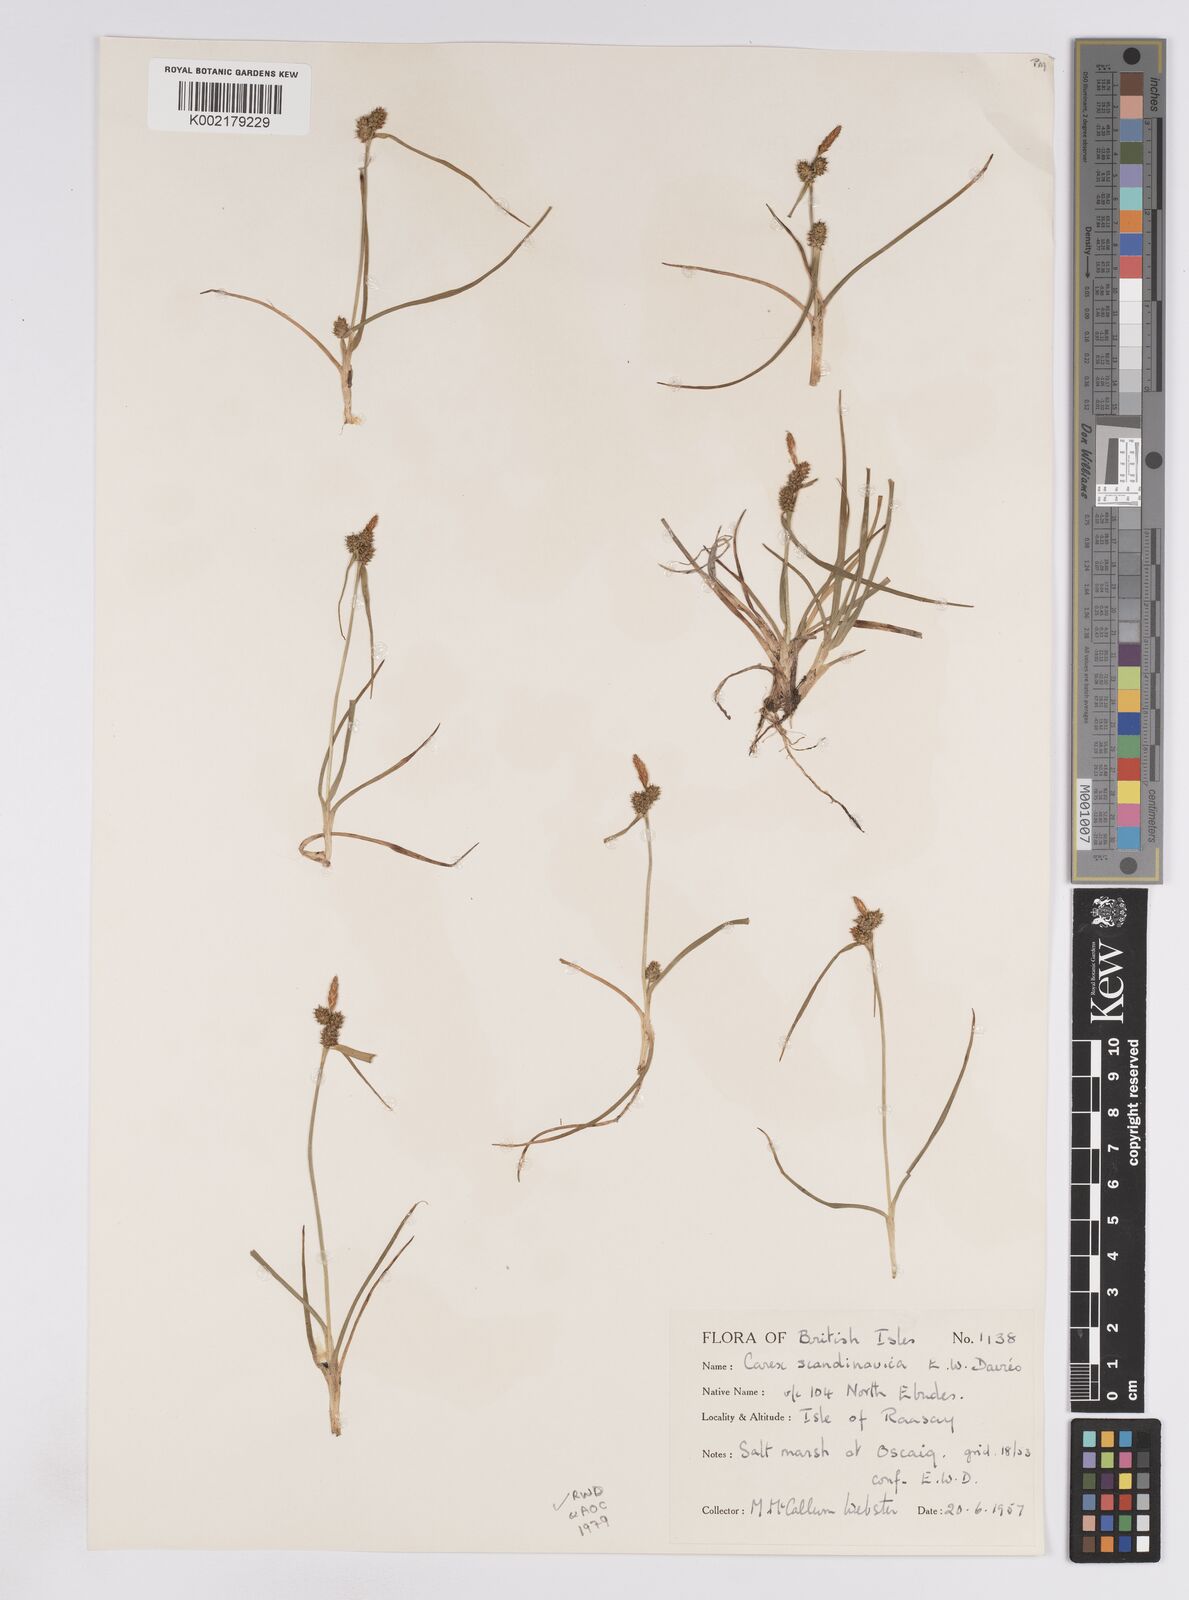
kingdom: Plantae
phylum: Tracheophyta
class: Liliopsida
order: Poales
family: Cyperaceae
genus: Carex
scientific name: Carex oederi
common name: Common & small-fruited yellow-sedge
